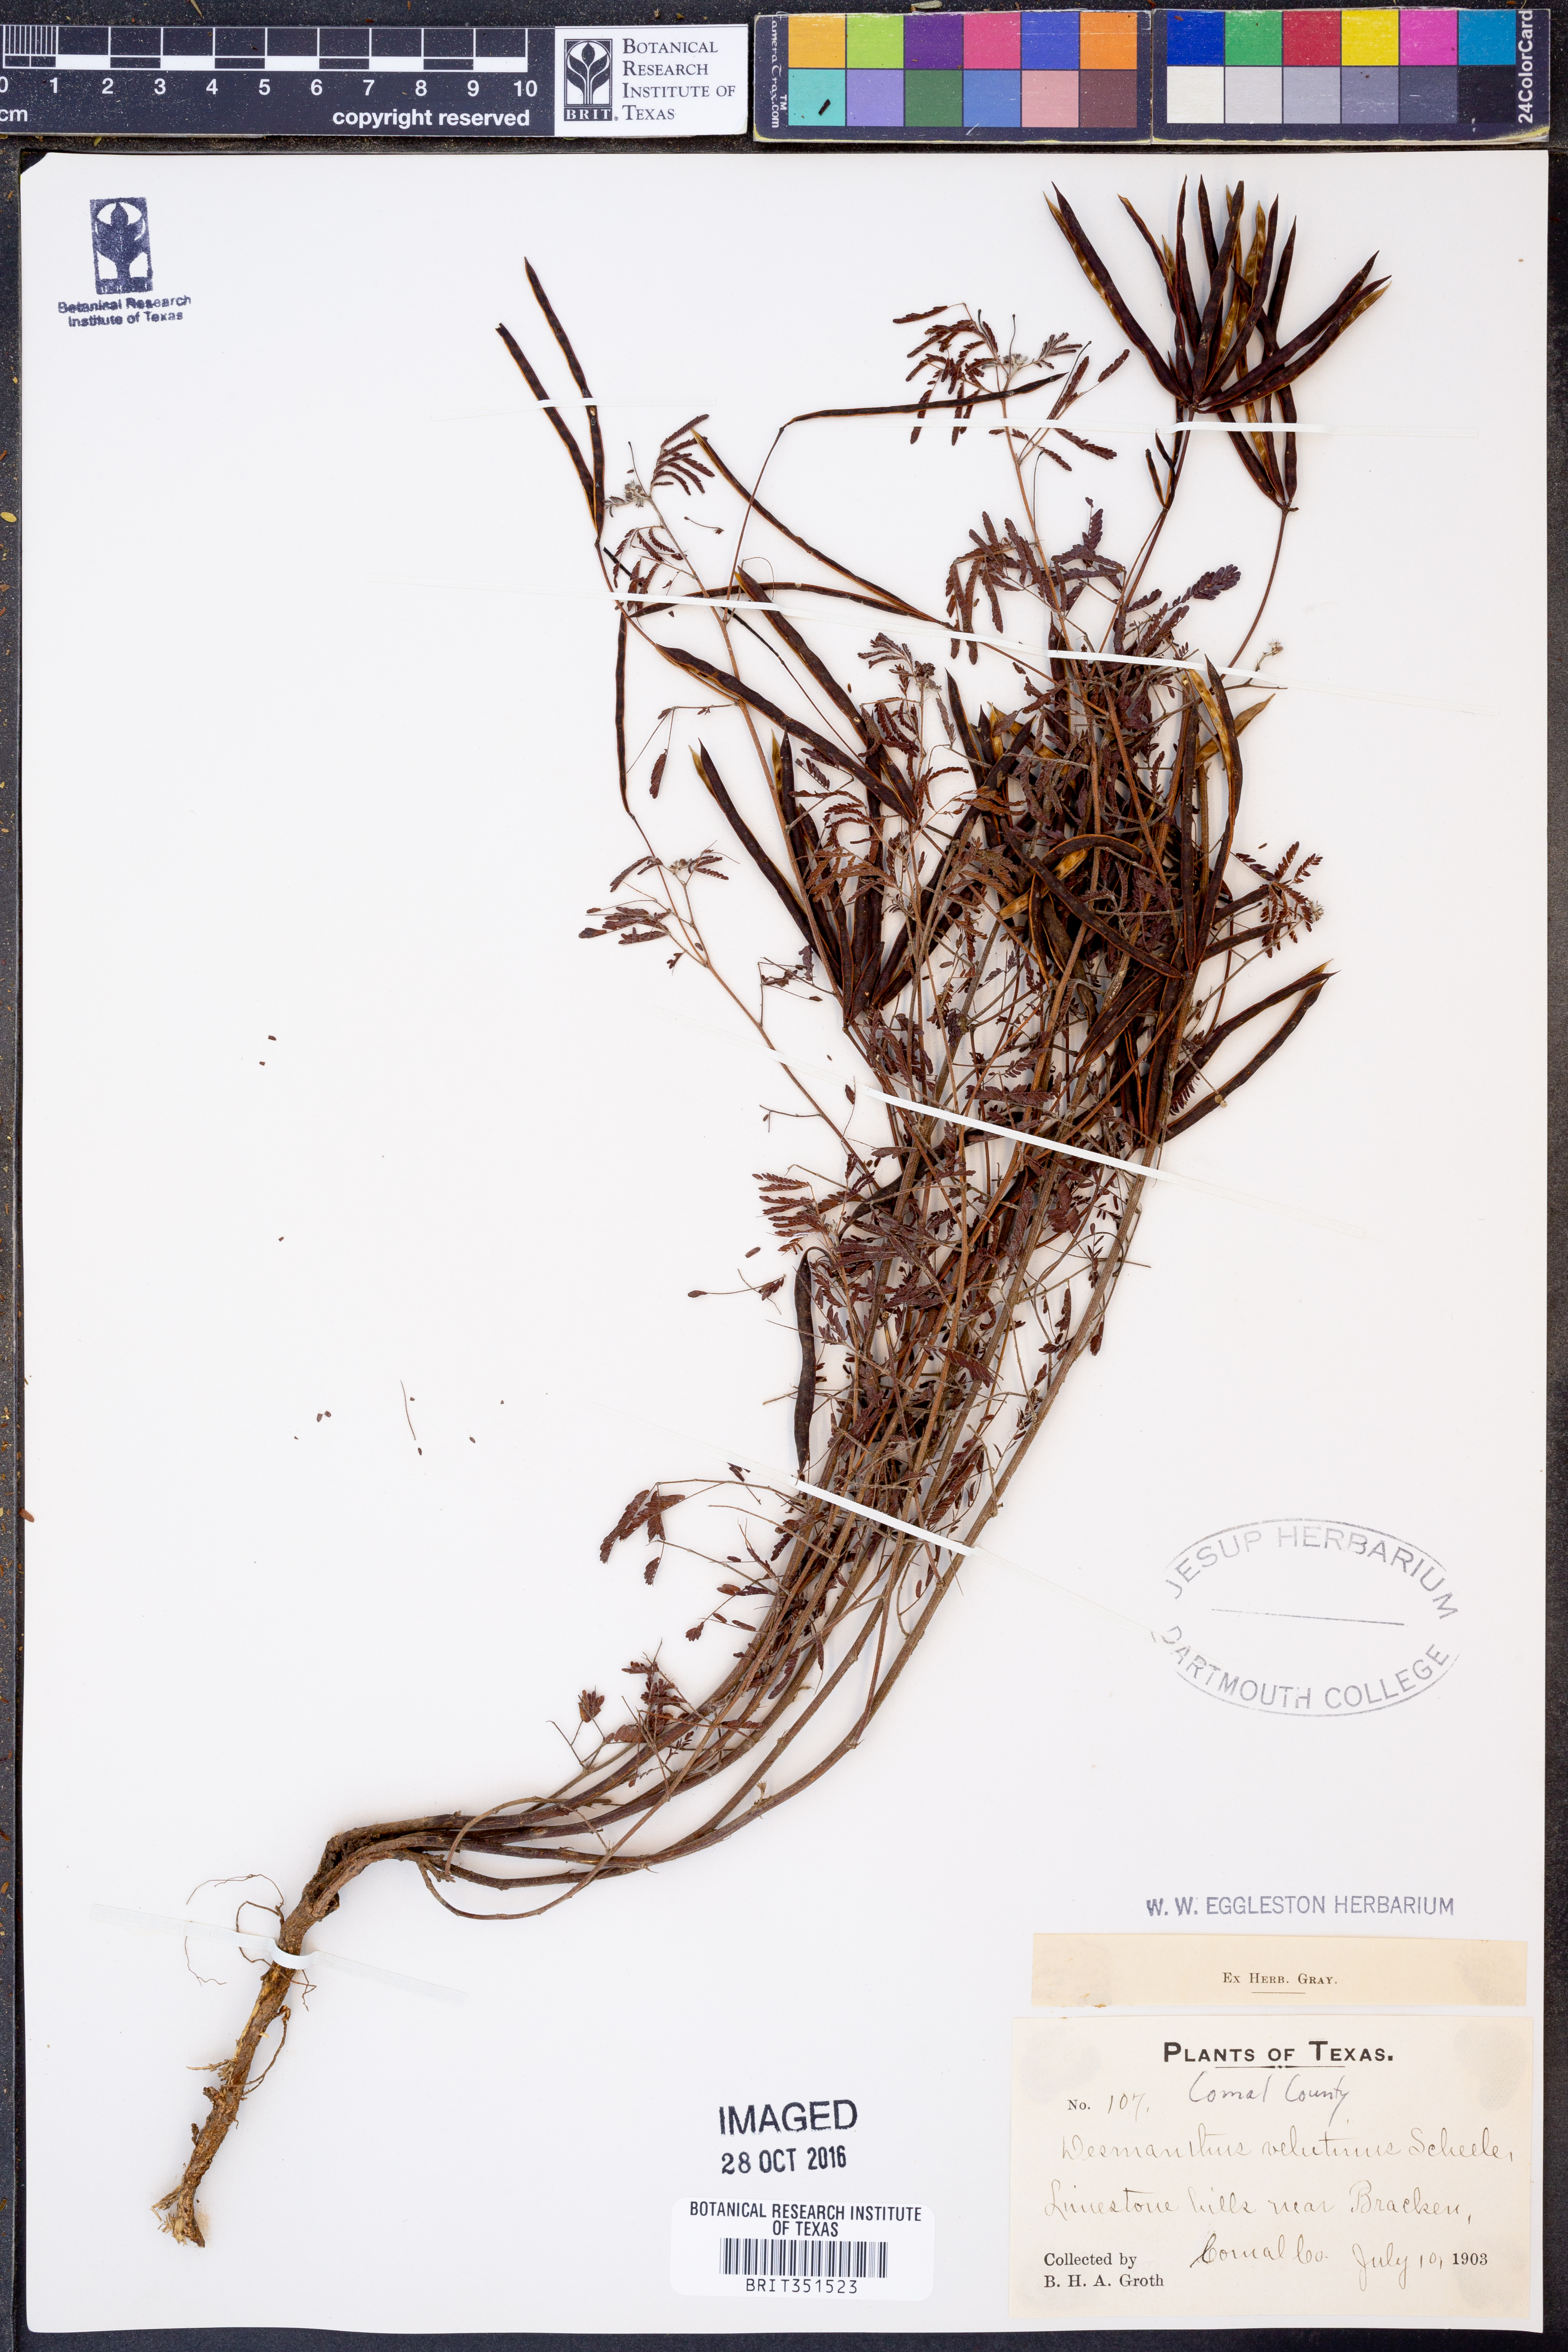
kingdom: Plantae
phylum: Tracheophyta
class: Magnoliopsida
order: Fabales
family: Fabaceae
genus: Desmanthus
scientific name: Desmanthus velutinus
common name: Velvet bundle-flower
